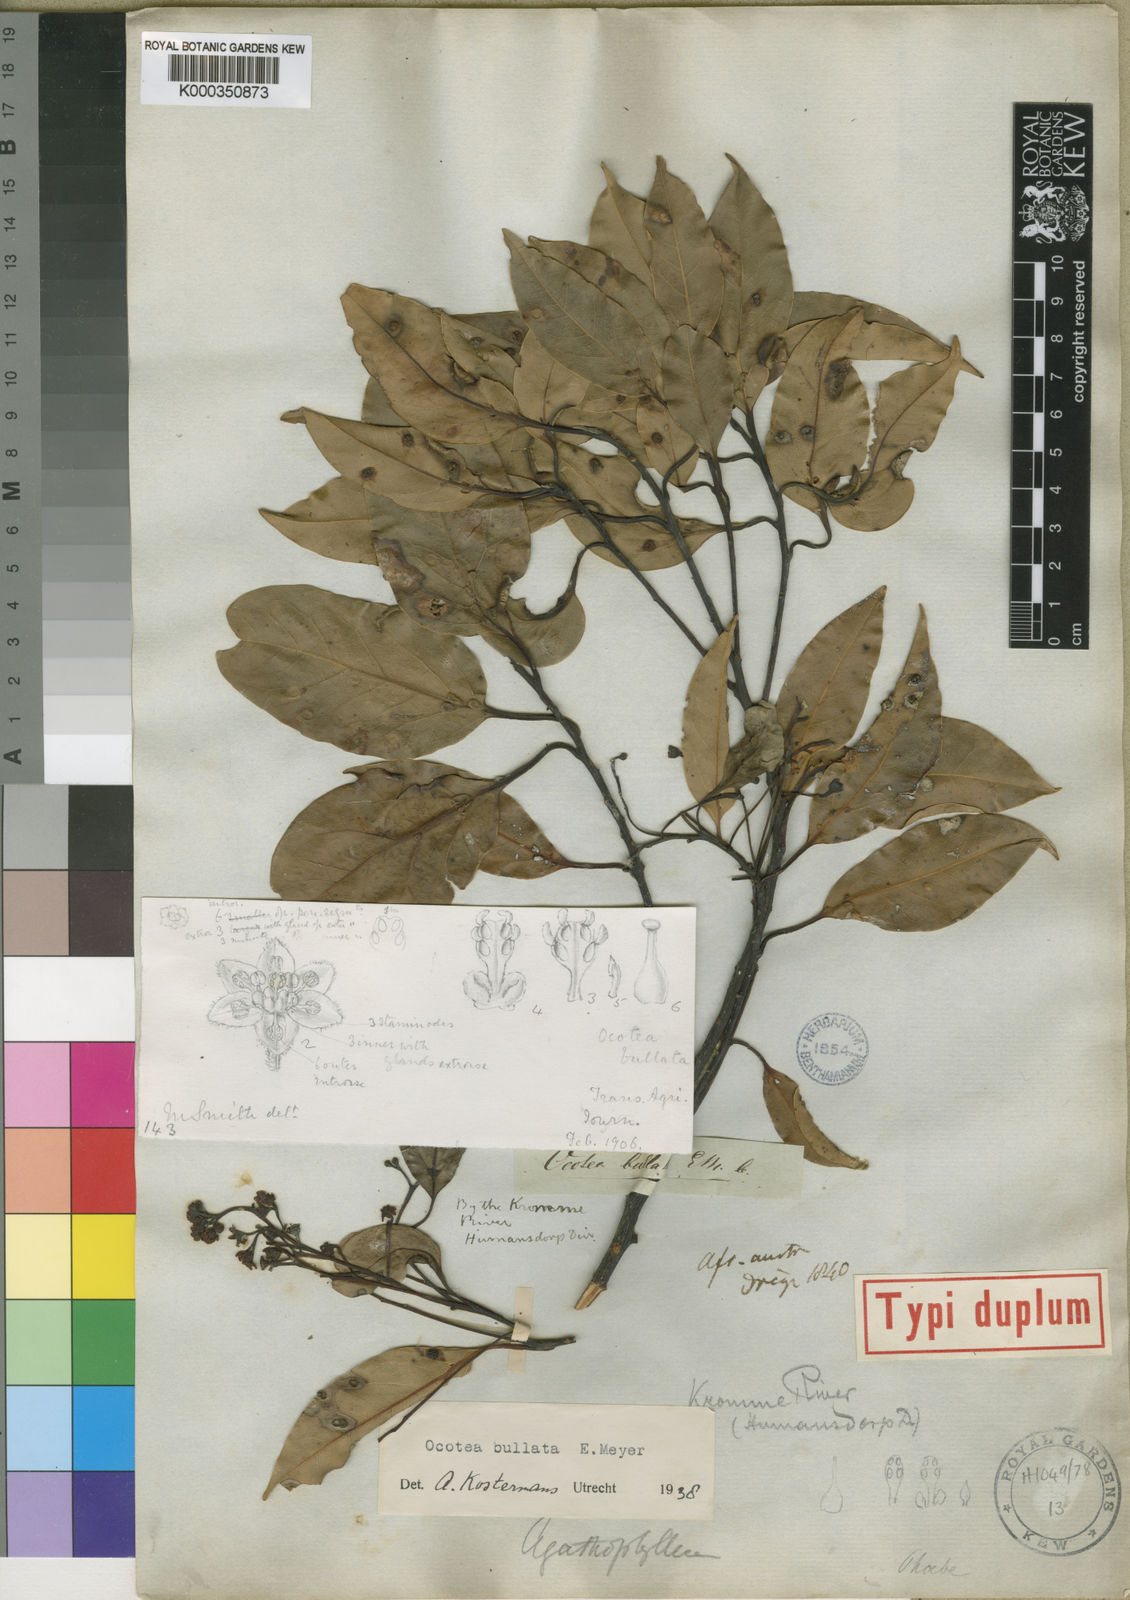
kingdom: Plantae
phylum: Tracheophyta
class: Magnoliopsida
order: Laurales
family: Lauraceae
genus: Ocotea
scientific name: Ocotea
